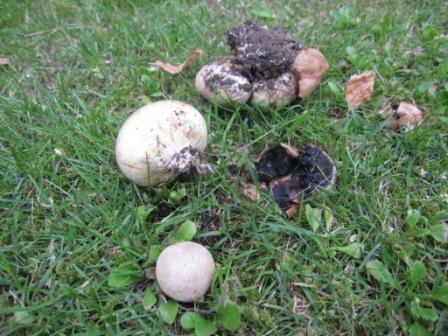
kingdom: Fungi
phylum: Basidiomycota
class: Agaricomycetes
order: Boletales
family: Sclerodermataceae
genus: Scleroderma
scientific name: Scleroderma bovista
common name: bovist-bruskbold
